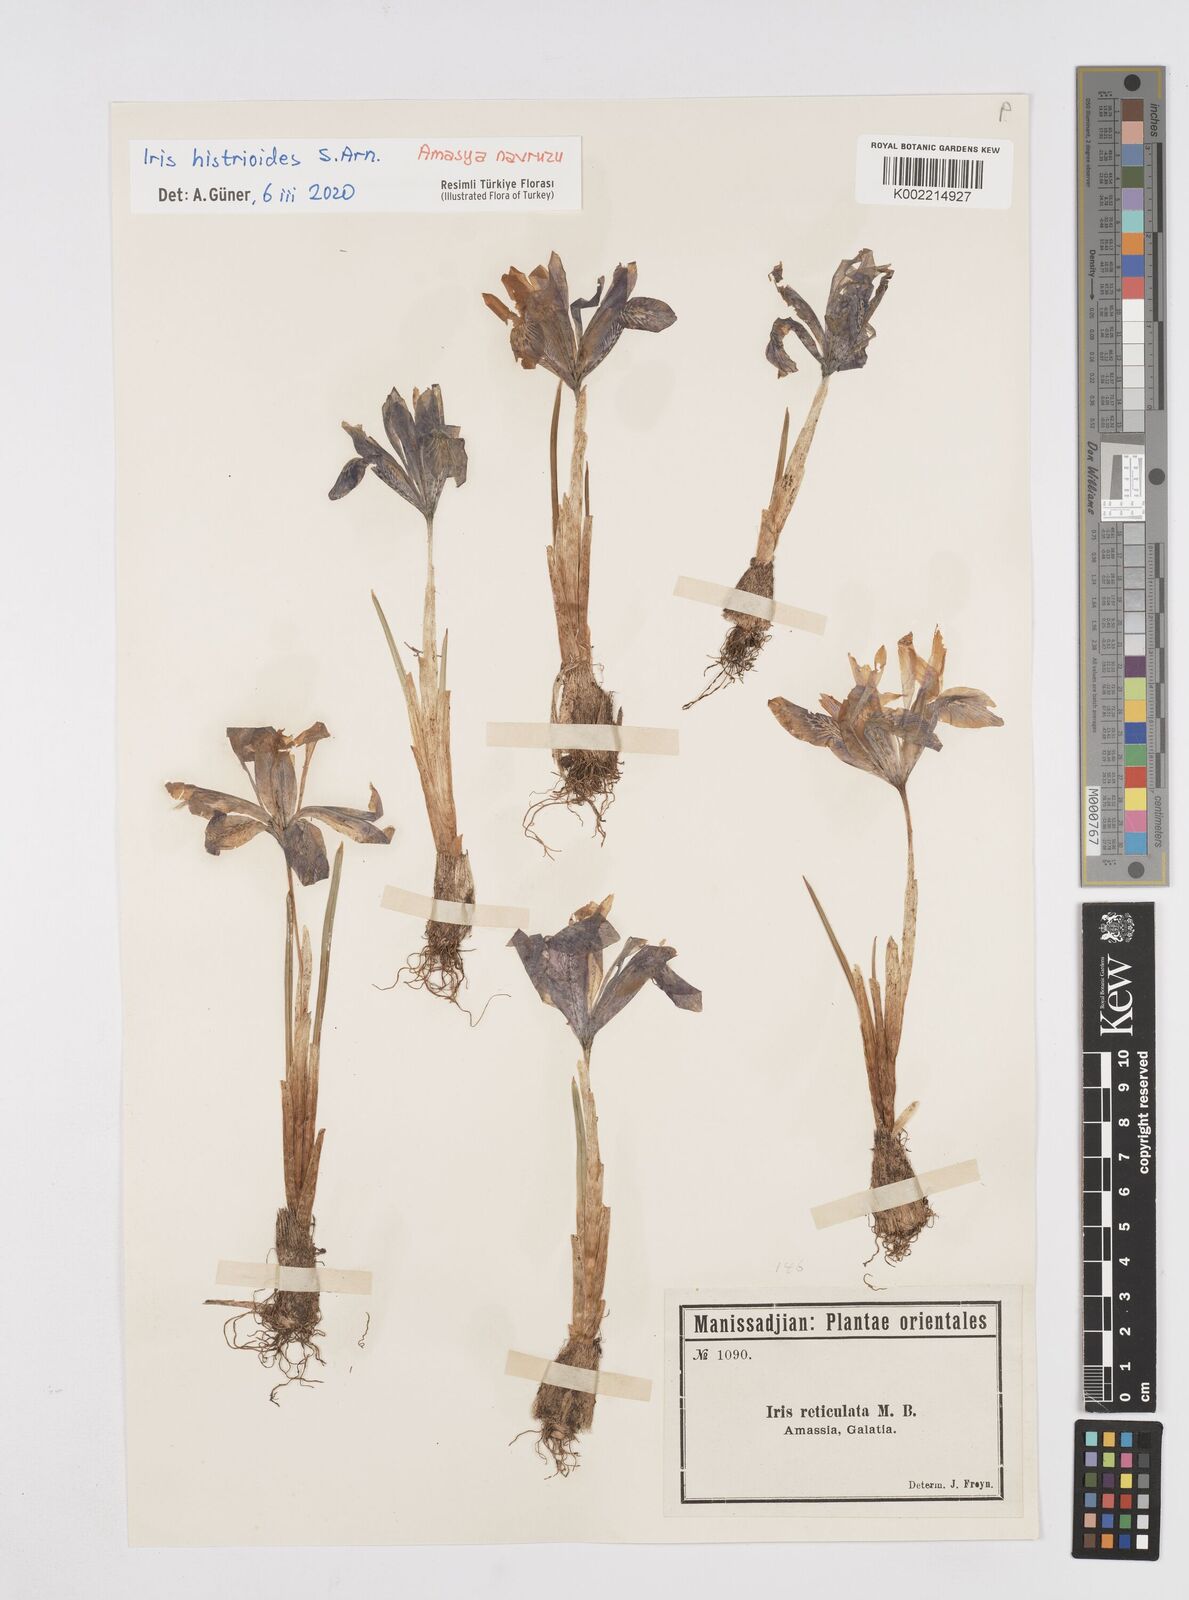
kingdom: Plantae
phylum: Tracheophyta
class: Liliopsida
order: Asparagales
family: Iridaceae
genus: Iris
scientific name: Iris histrioides
